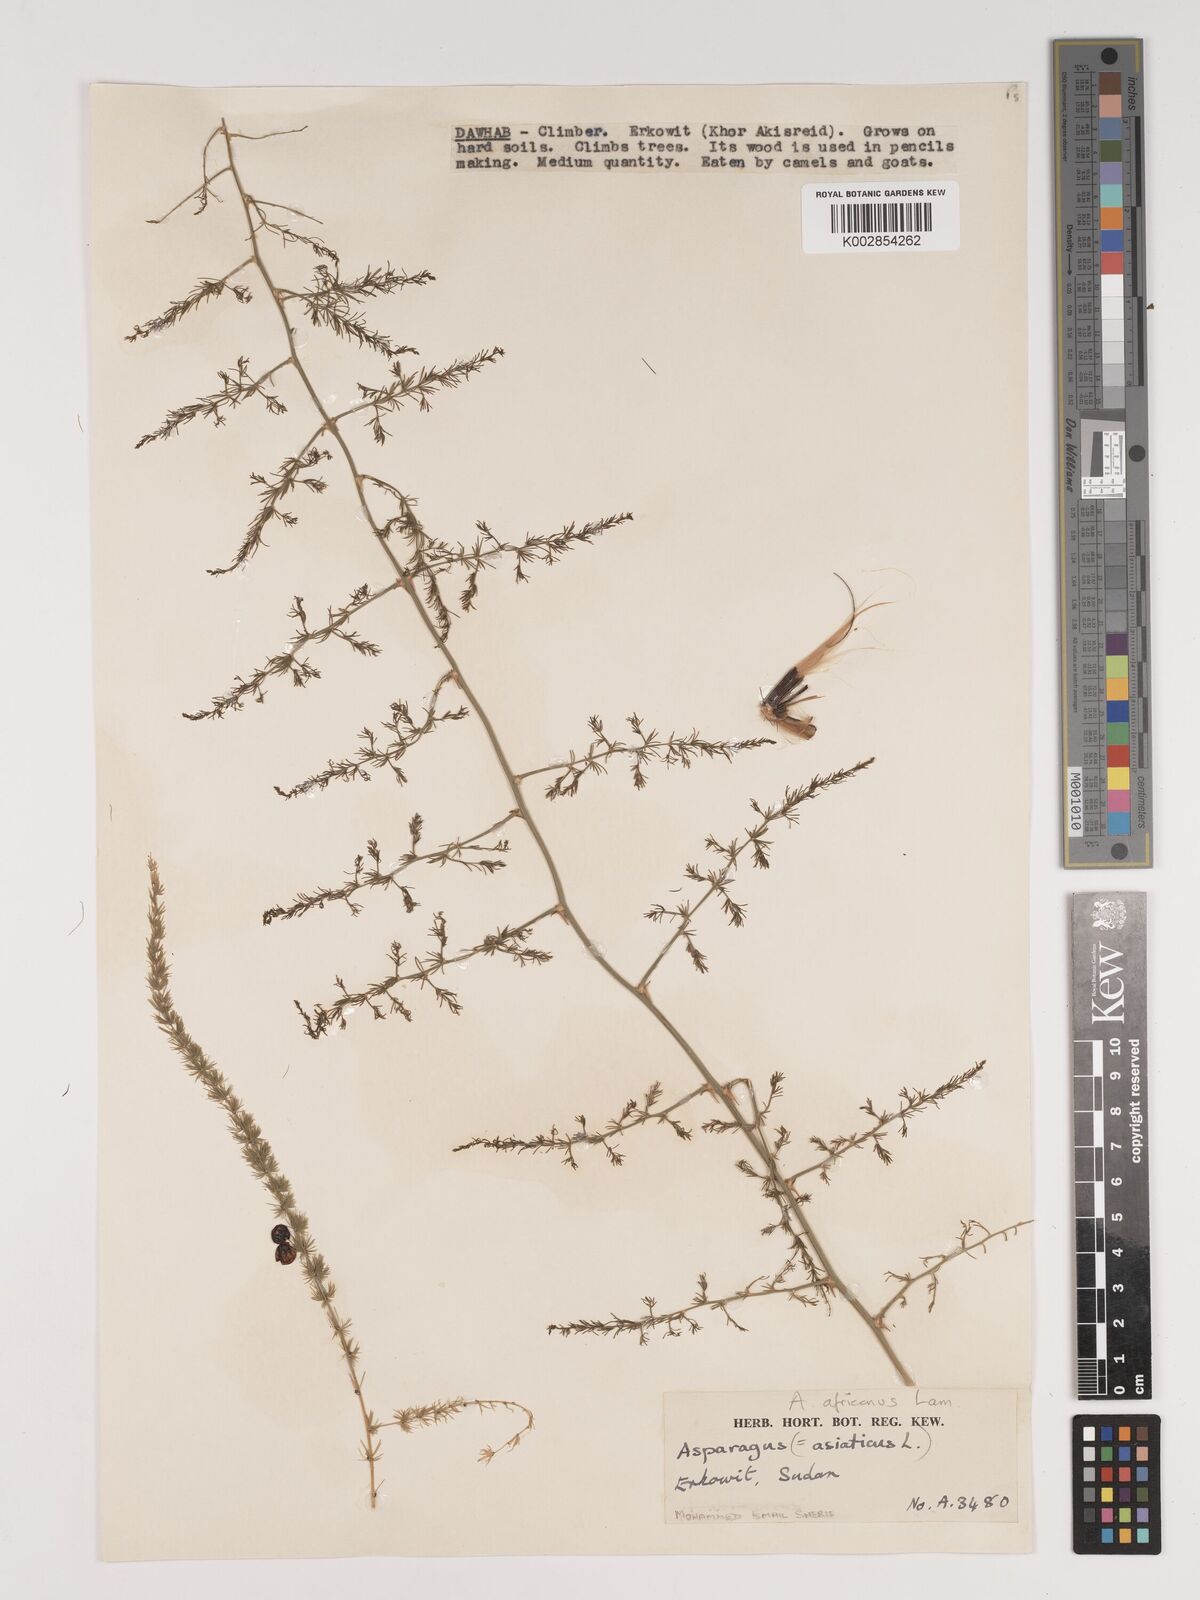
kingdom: Plantae
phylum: Tracheophyta
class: Liliopsida
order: Asparagales
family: Asparagaceae
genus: Asparagus
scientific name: Asparagus africanus
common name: Asparagus-fern
